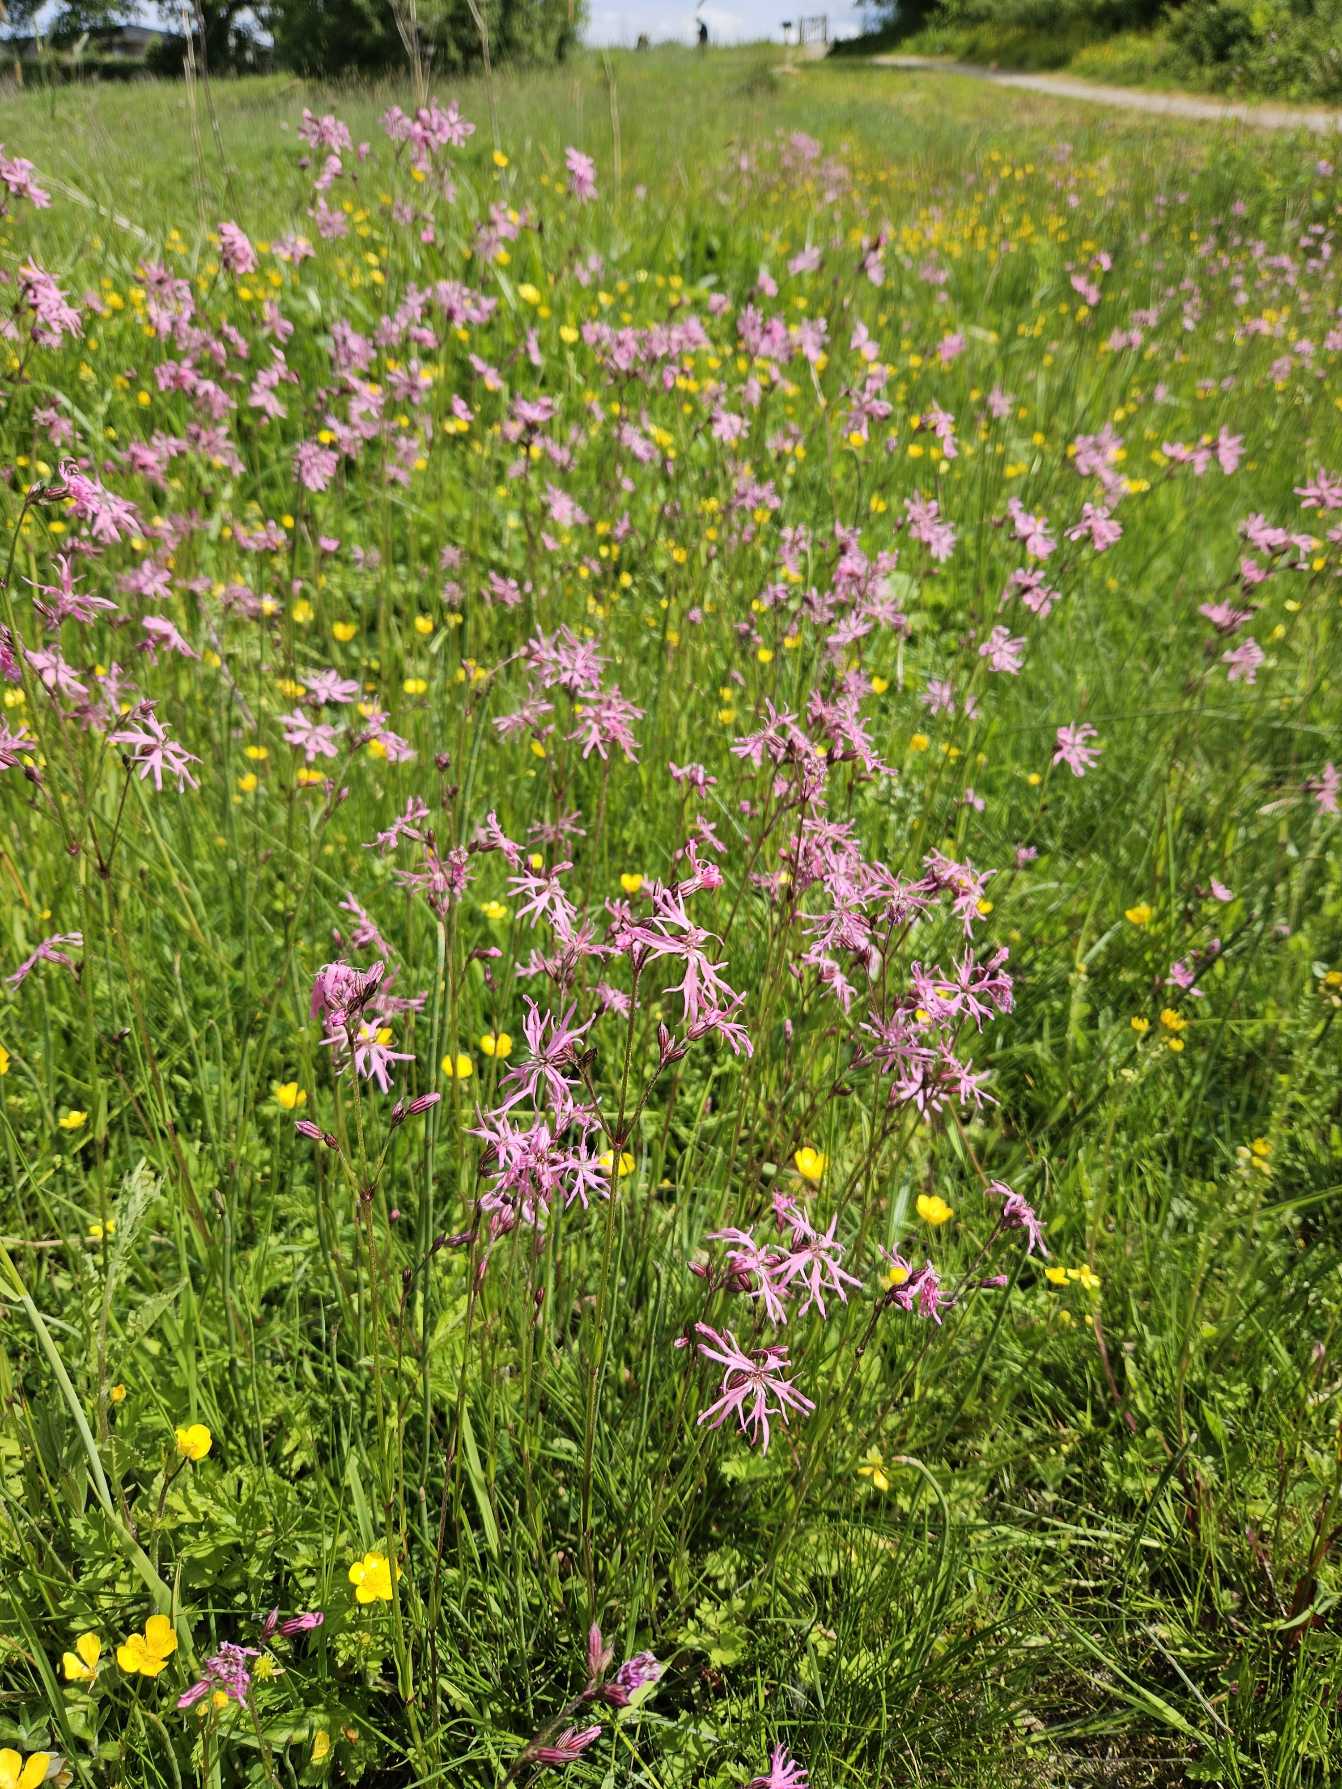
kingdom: Plantae
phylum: Tracheophyta
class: Magnoliopsida
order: Caryophyllales
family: Caryophyllaceae
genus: Silene
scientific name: Silene flos-cuculi
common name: Trævlekrone
